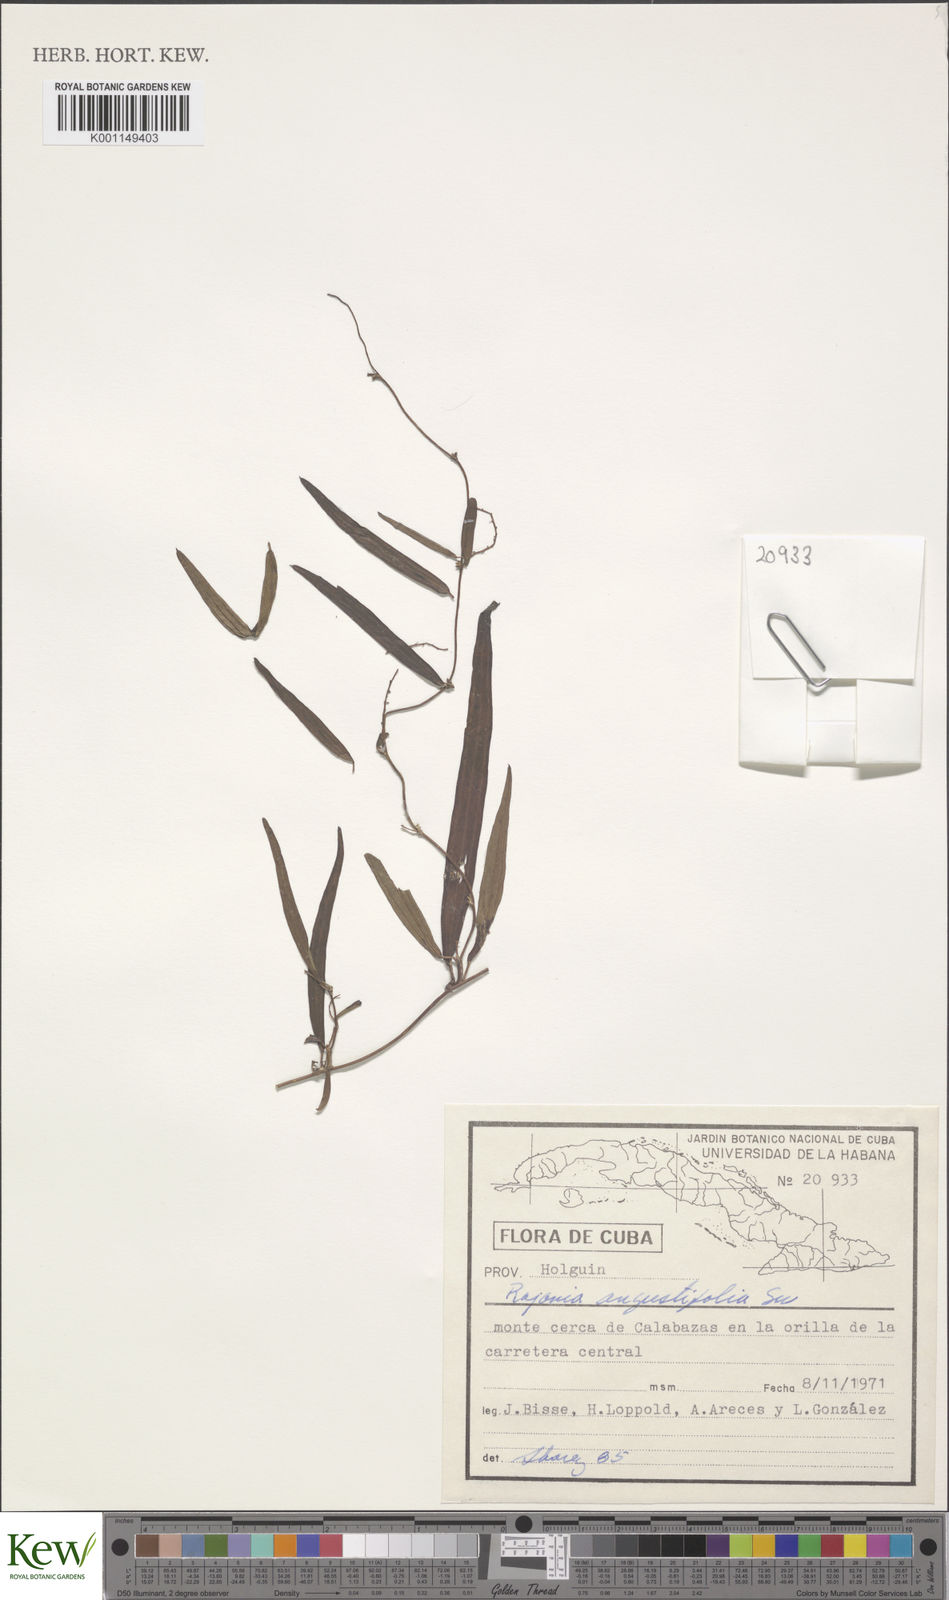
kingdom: Plantae
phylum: Tracheophyta
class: Liliopsida
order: Dioscoreales
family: Dioscoreaceae
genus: Dioscorea
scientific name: Dioscorea
